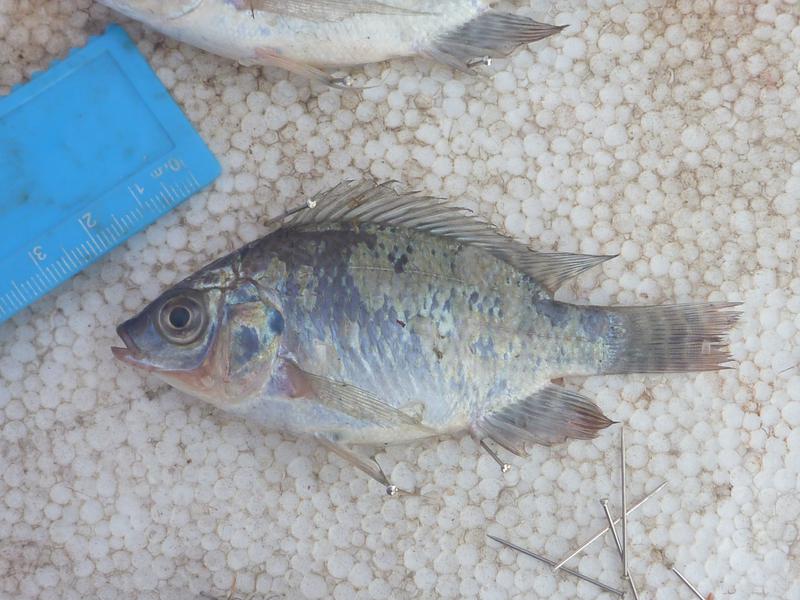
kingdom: Animalia
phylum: Chordata
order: Perciformes
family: Cichlidae
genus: Oreochromis
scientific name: Oreochromis niloticus
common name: Nile tilapia
